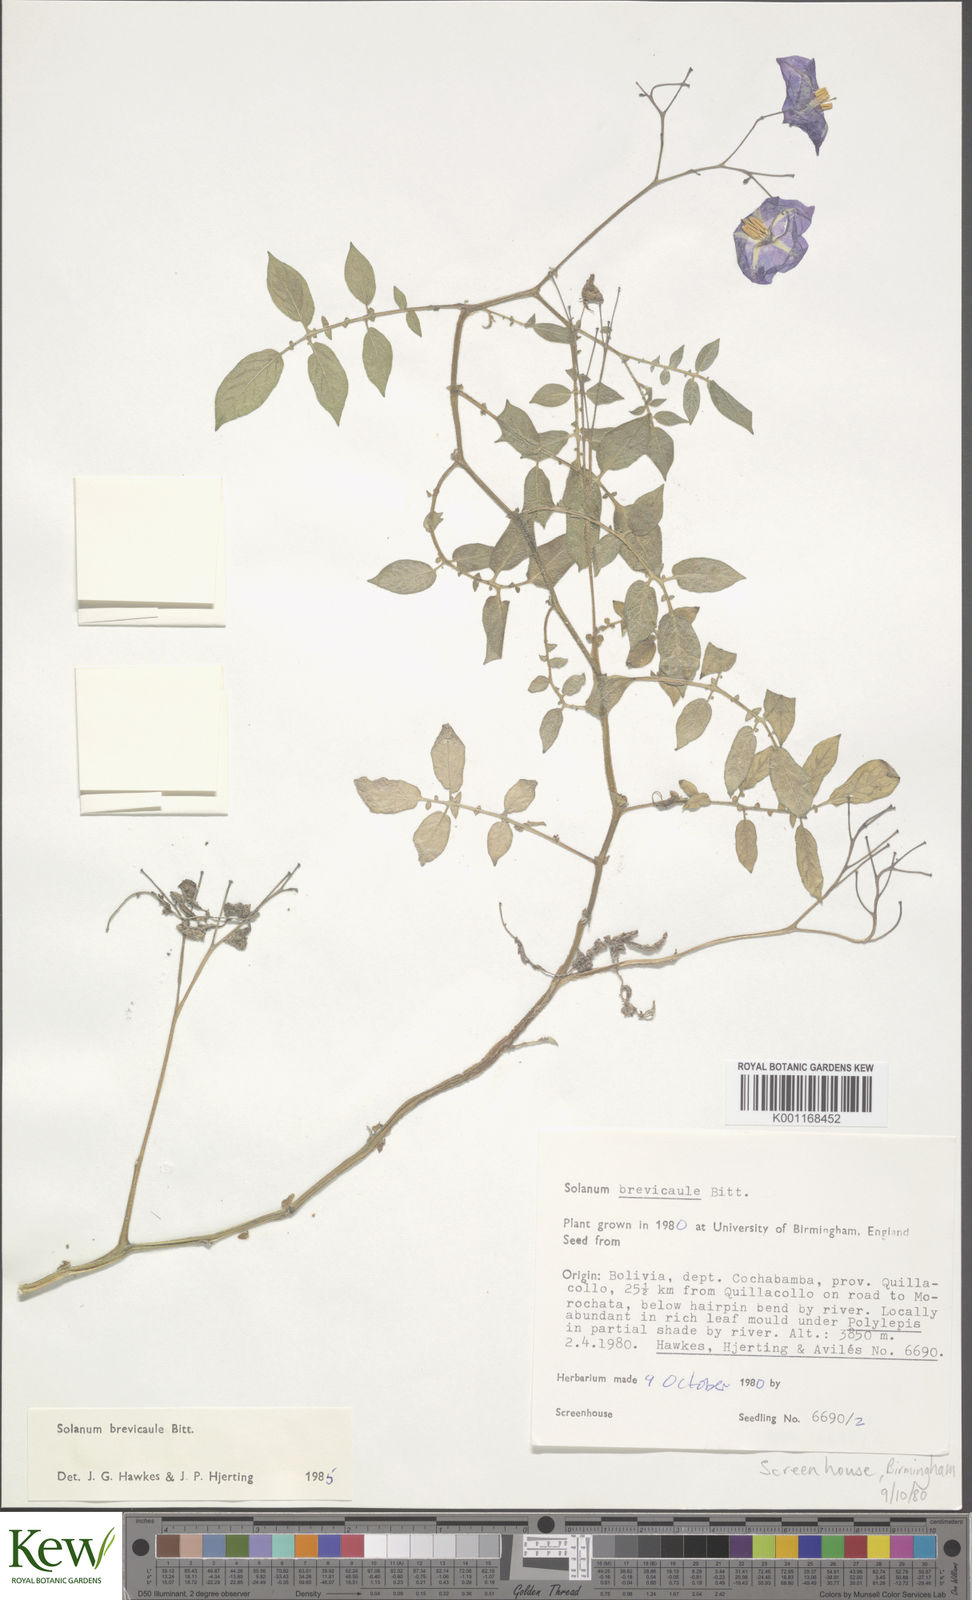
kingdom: Plantae
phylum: Tracheophyta
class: Magnoliopsida
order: Solanales
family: Solanaceae
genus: Solanum
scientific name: Solanum brevicaule
